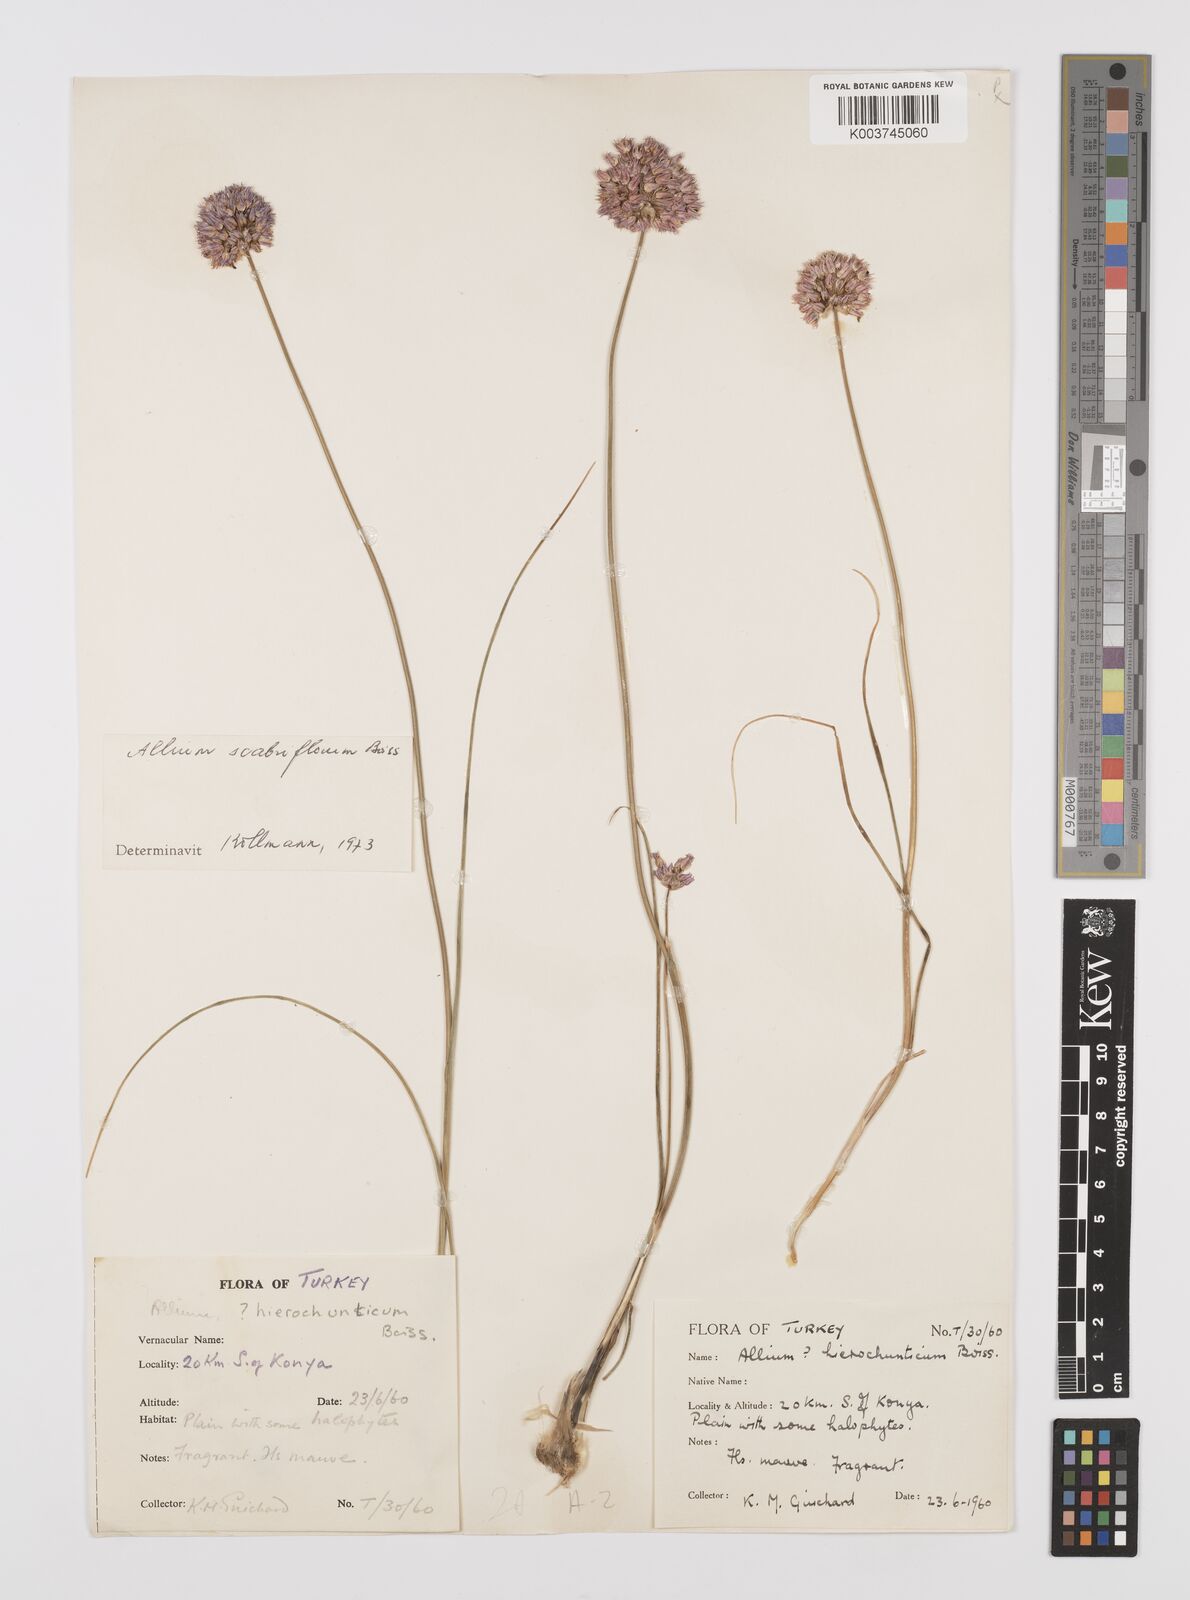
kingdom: Plantae
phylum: Tracheophyta
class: Liliopsida
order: Asparagales
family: Amaryllidaceae
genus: Allium
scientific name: Allium scabriflorum
